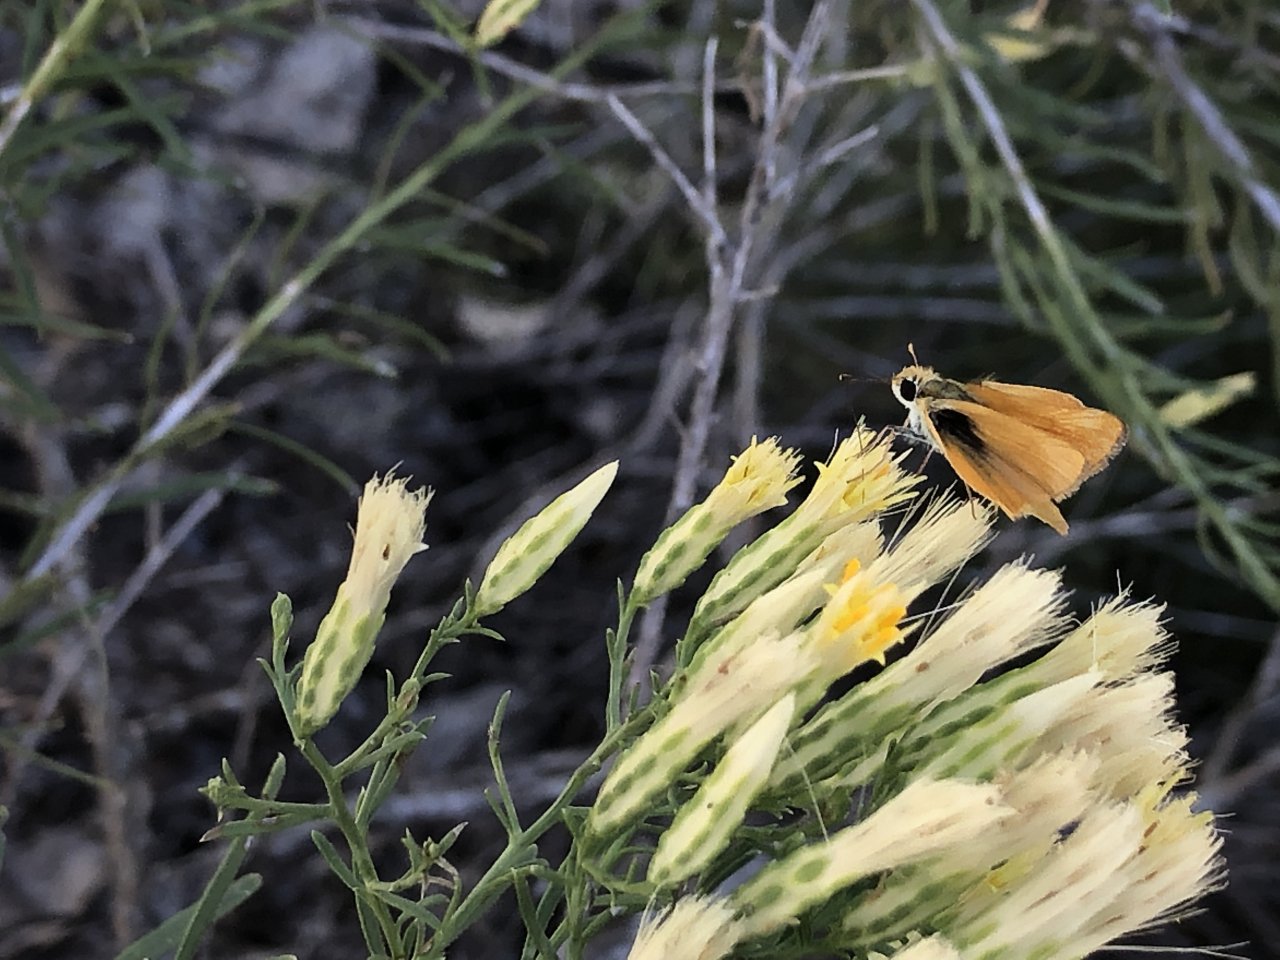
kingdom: Animalia
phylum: Arthropoda
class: Insecta
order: Lepidoptera
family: Hesperiidae
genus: Copaeodes
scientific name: Copaeodes aurantiaca
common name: Orange Skipperling
